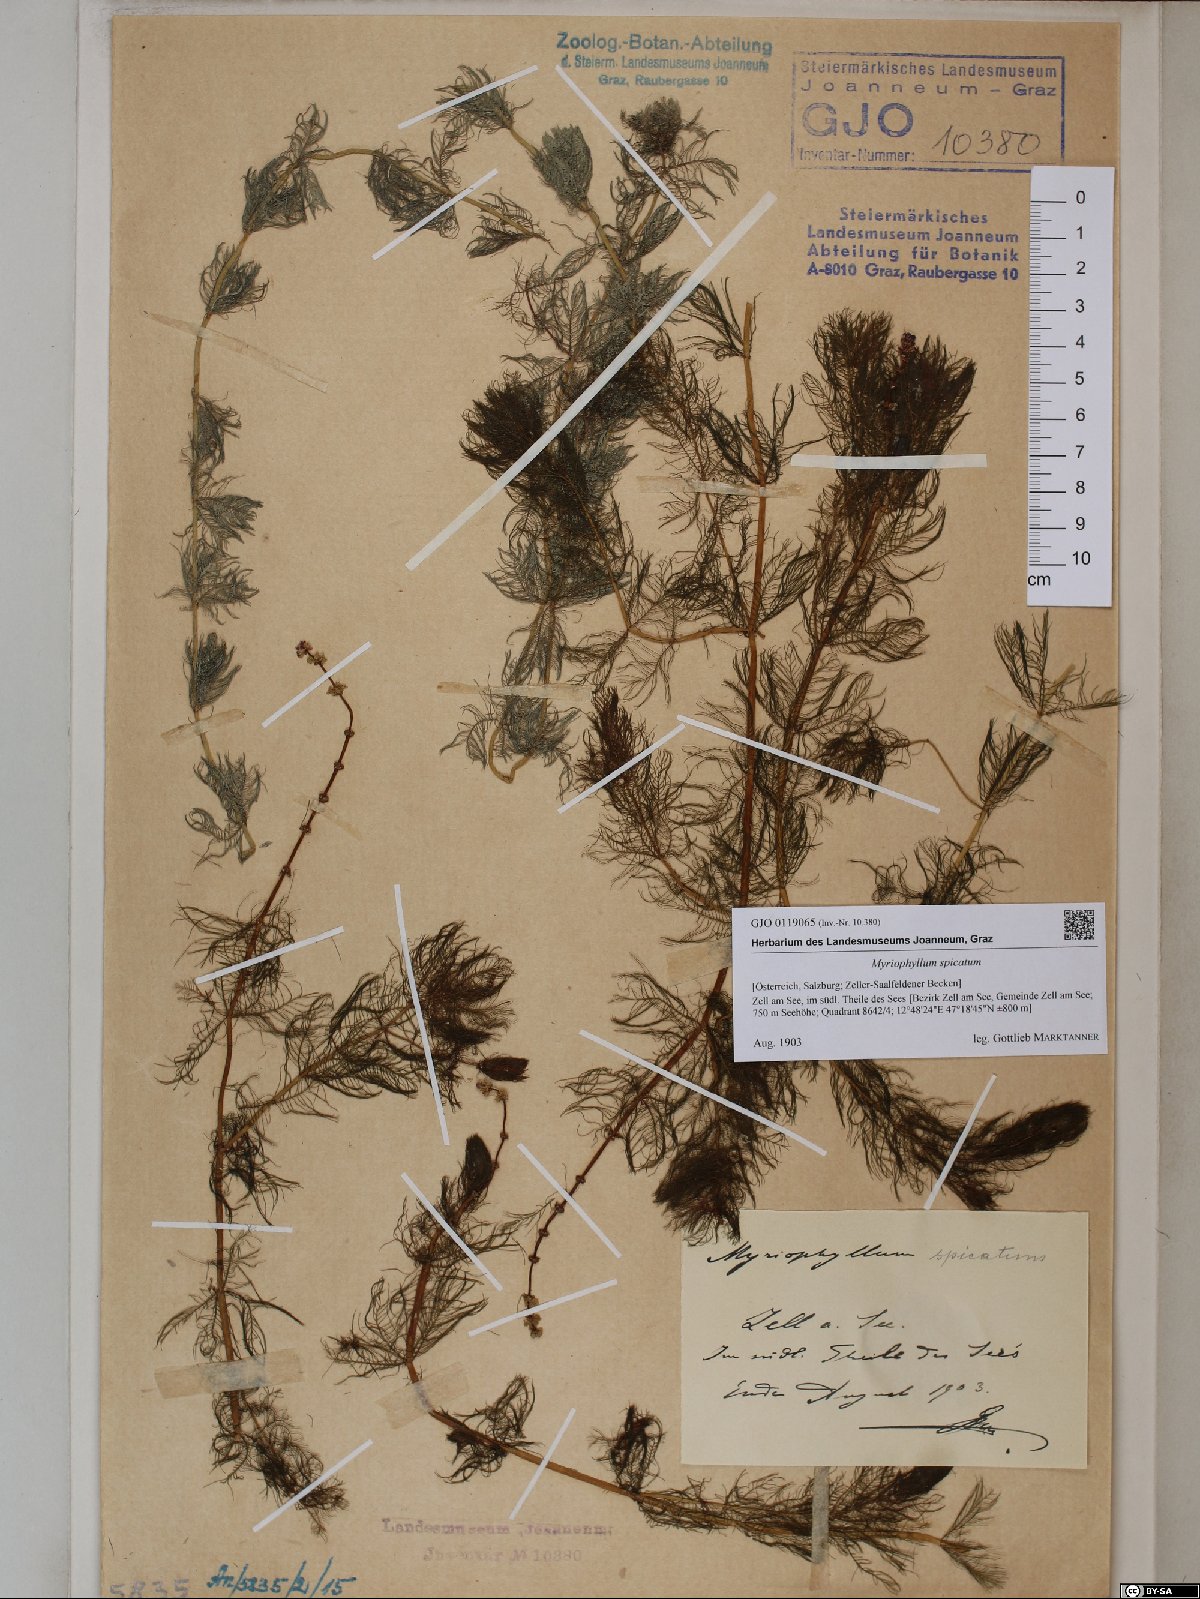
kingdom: Plantae
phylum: Tracheophyta
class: Magnoliopsida
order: Saxifragales
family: Haloragaceae
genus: Myriophyllum
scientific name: Myriophyllum spicatum
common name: Spiked water-milfoil
